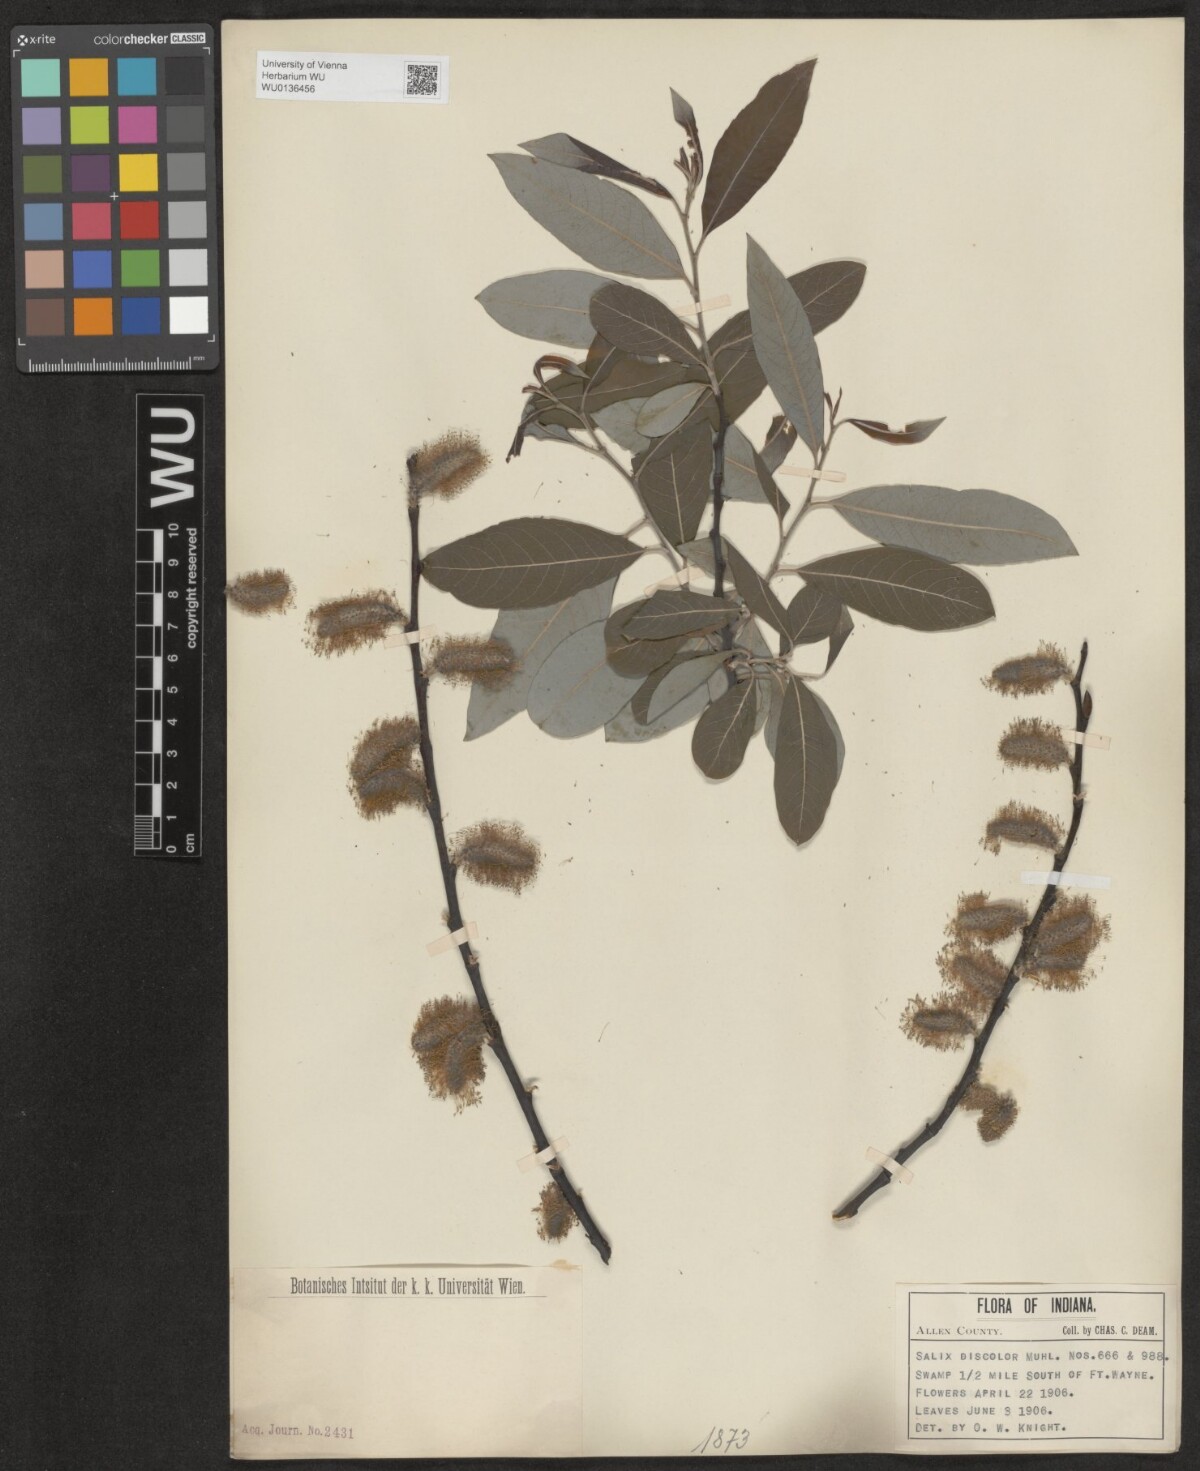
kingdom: Plantae
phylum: Tracheophyta
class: Magnoliopsida
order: Malpighiales
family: Salicaceae
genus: Salix
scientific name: Salix discolor
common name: Glaucous willow
